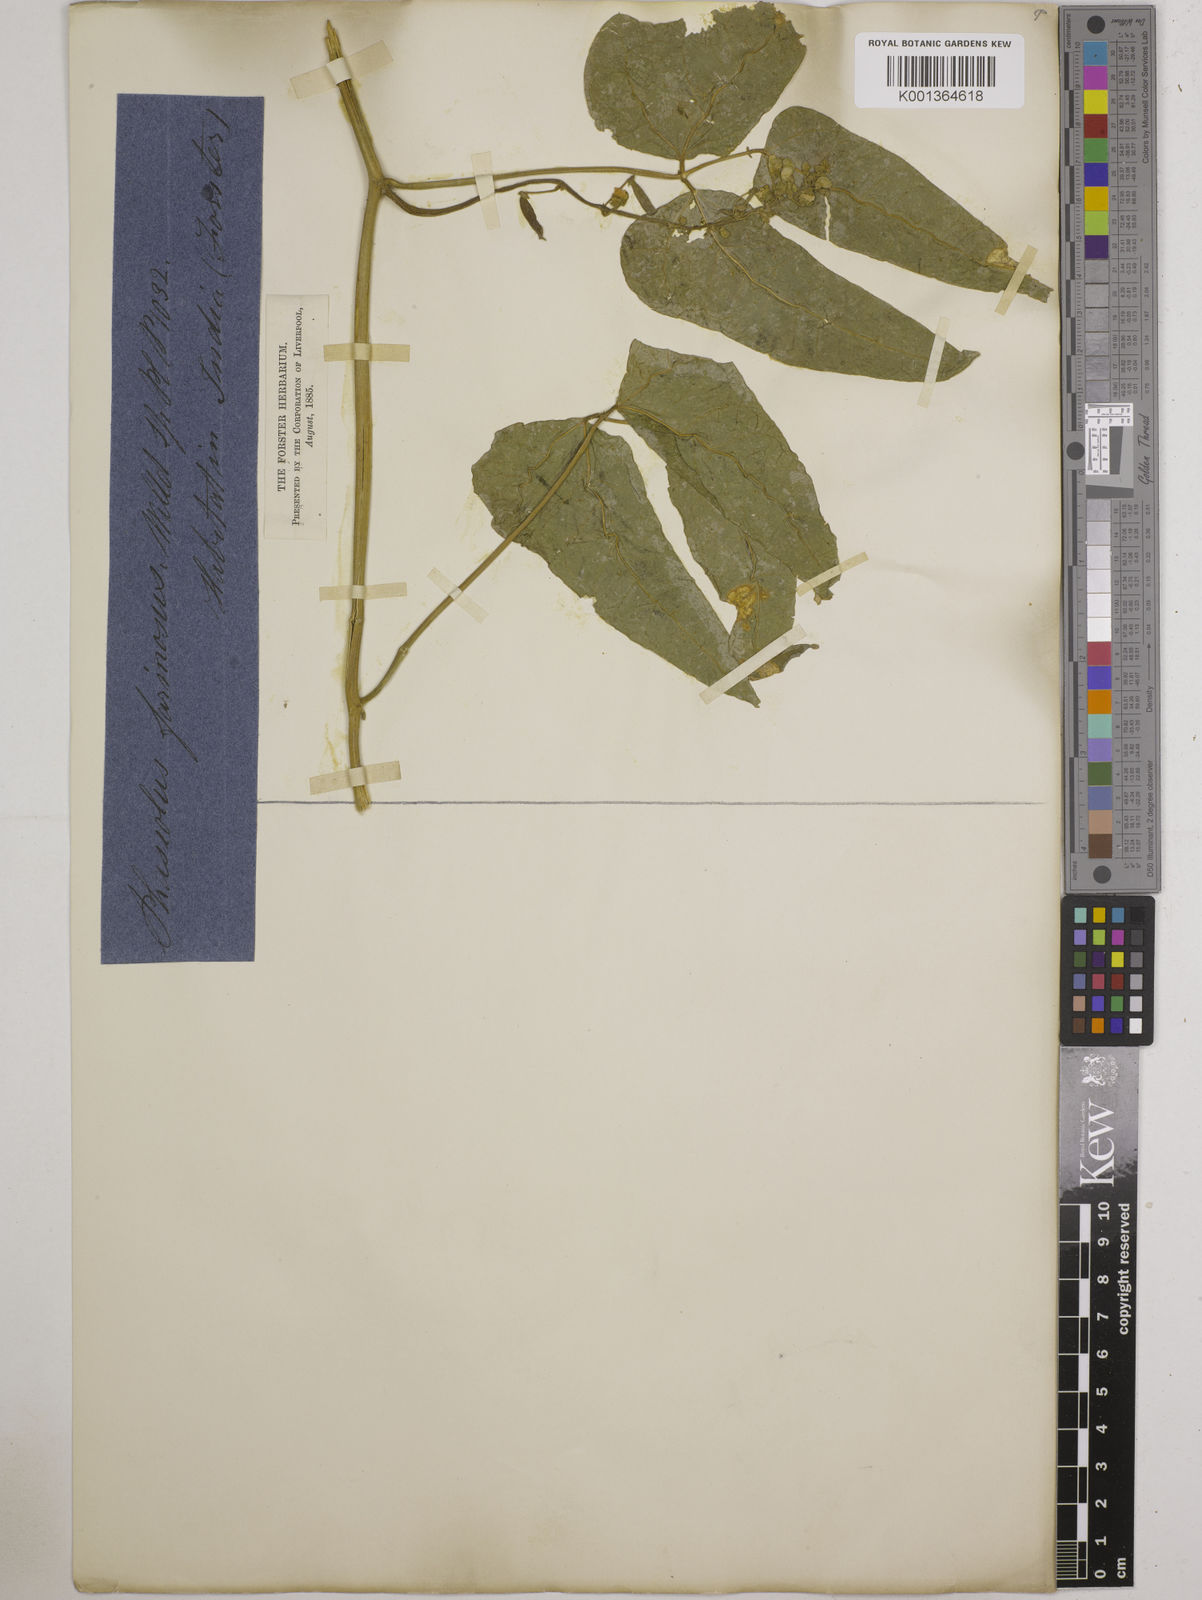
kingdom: Plantae
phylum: Tracheophyta
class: Magnoliopsida
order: Fabales
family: Fabaceae
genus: Phaseolus
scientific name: Phaseolus lunatus
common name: Sieva bean
